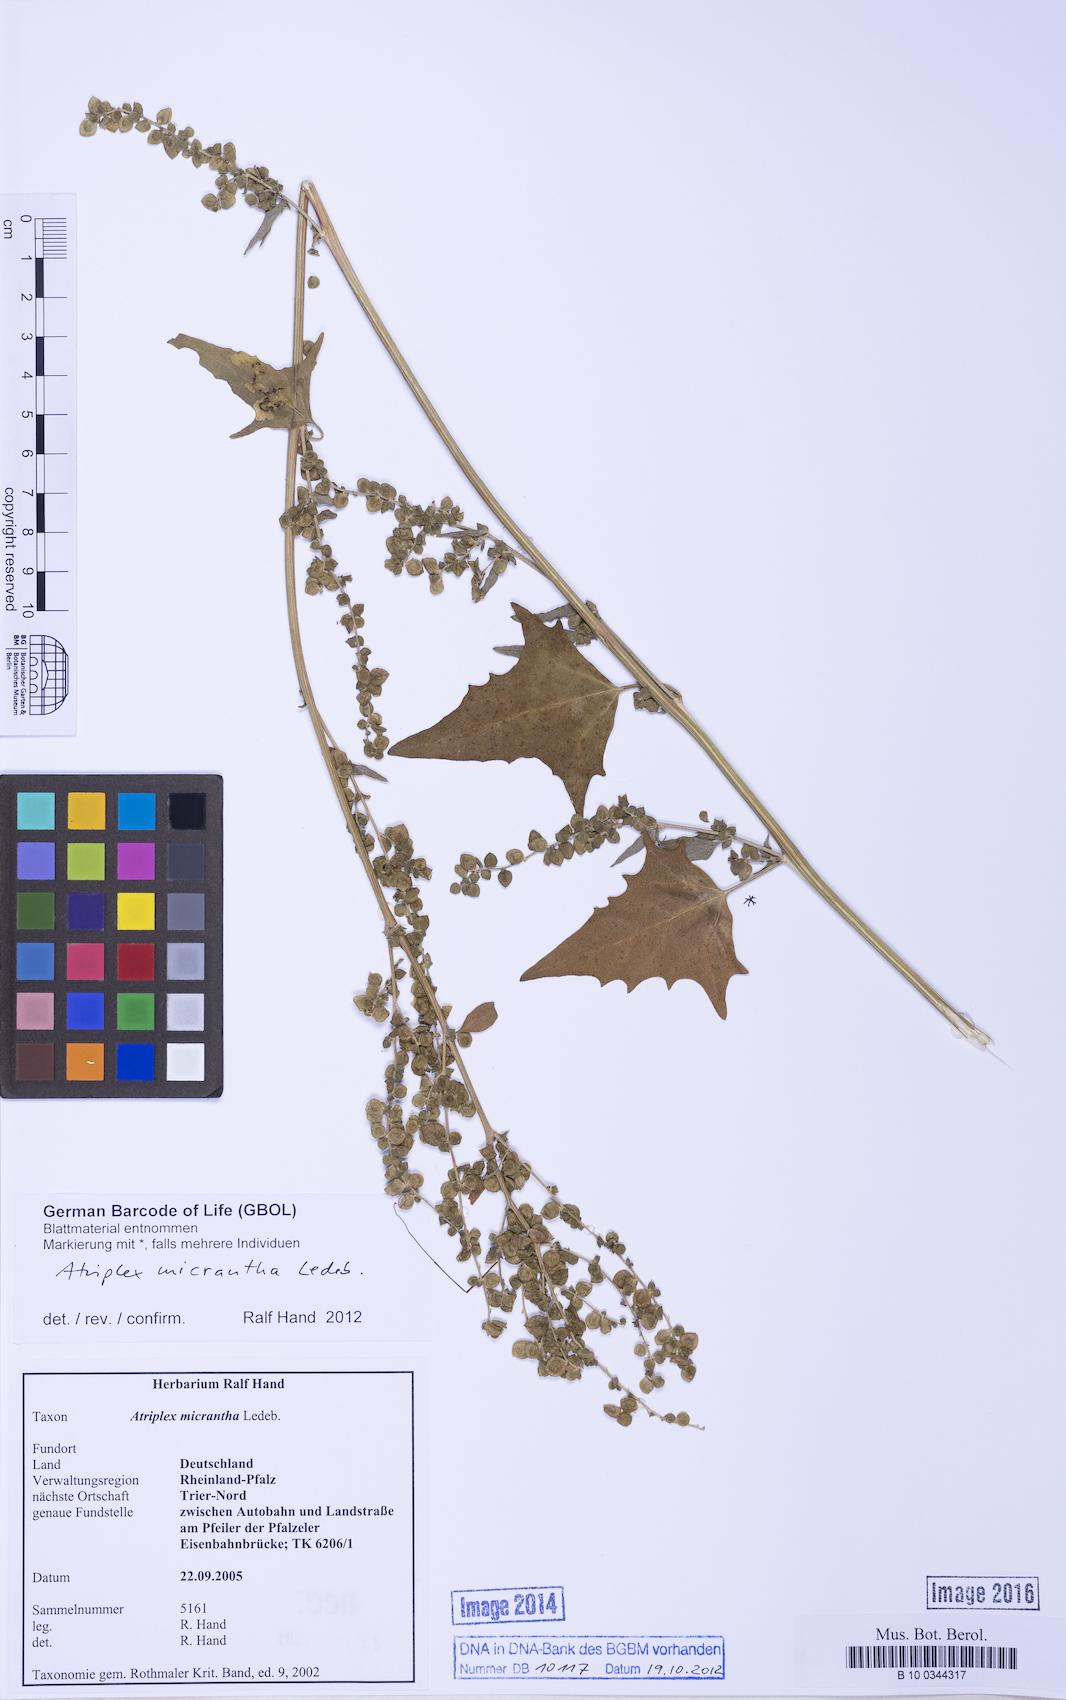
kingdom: Plantae
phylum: Tracheophyta
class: Magnoliopsida
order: Caryophyllales
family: Amaranthaceae
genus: Atriplex
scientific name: Atriplex micrantha
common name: Twoscale saltbush
